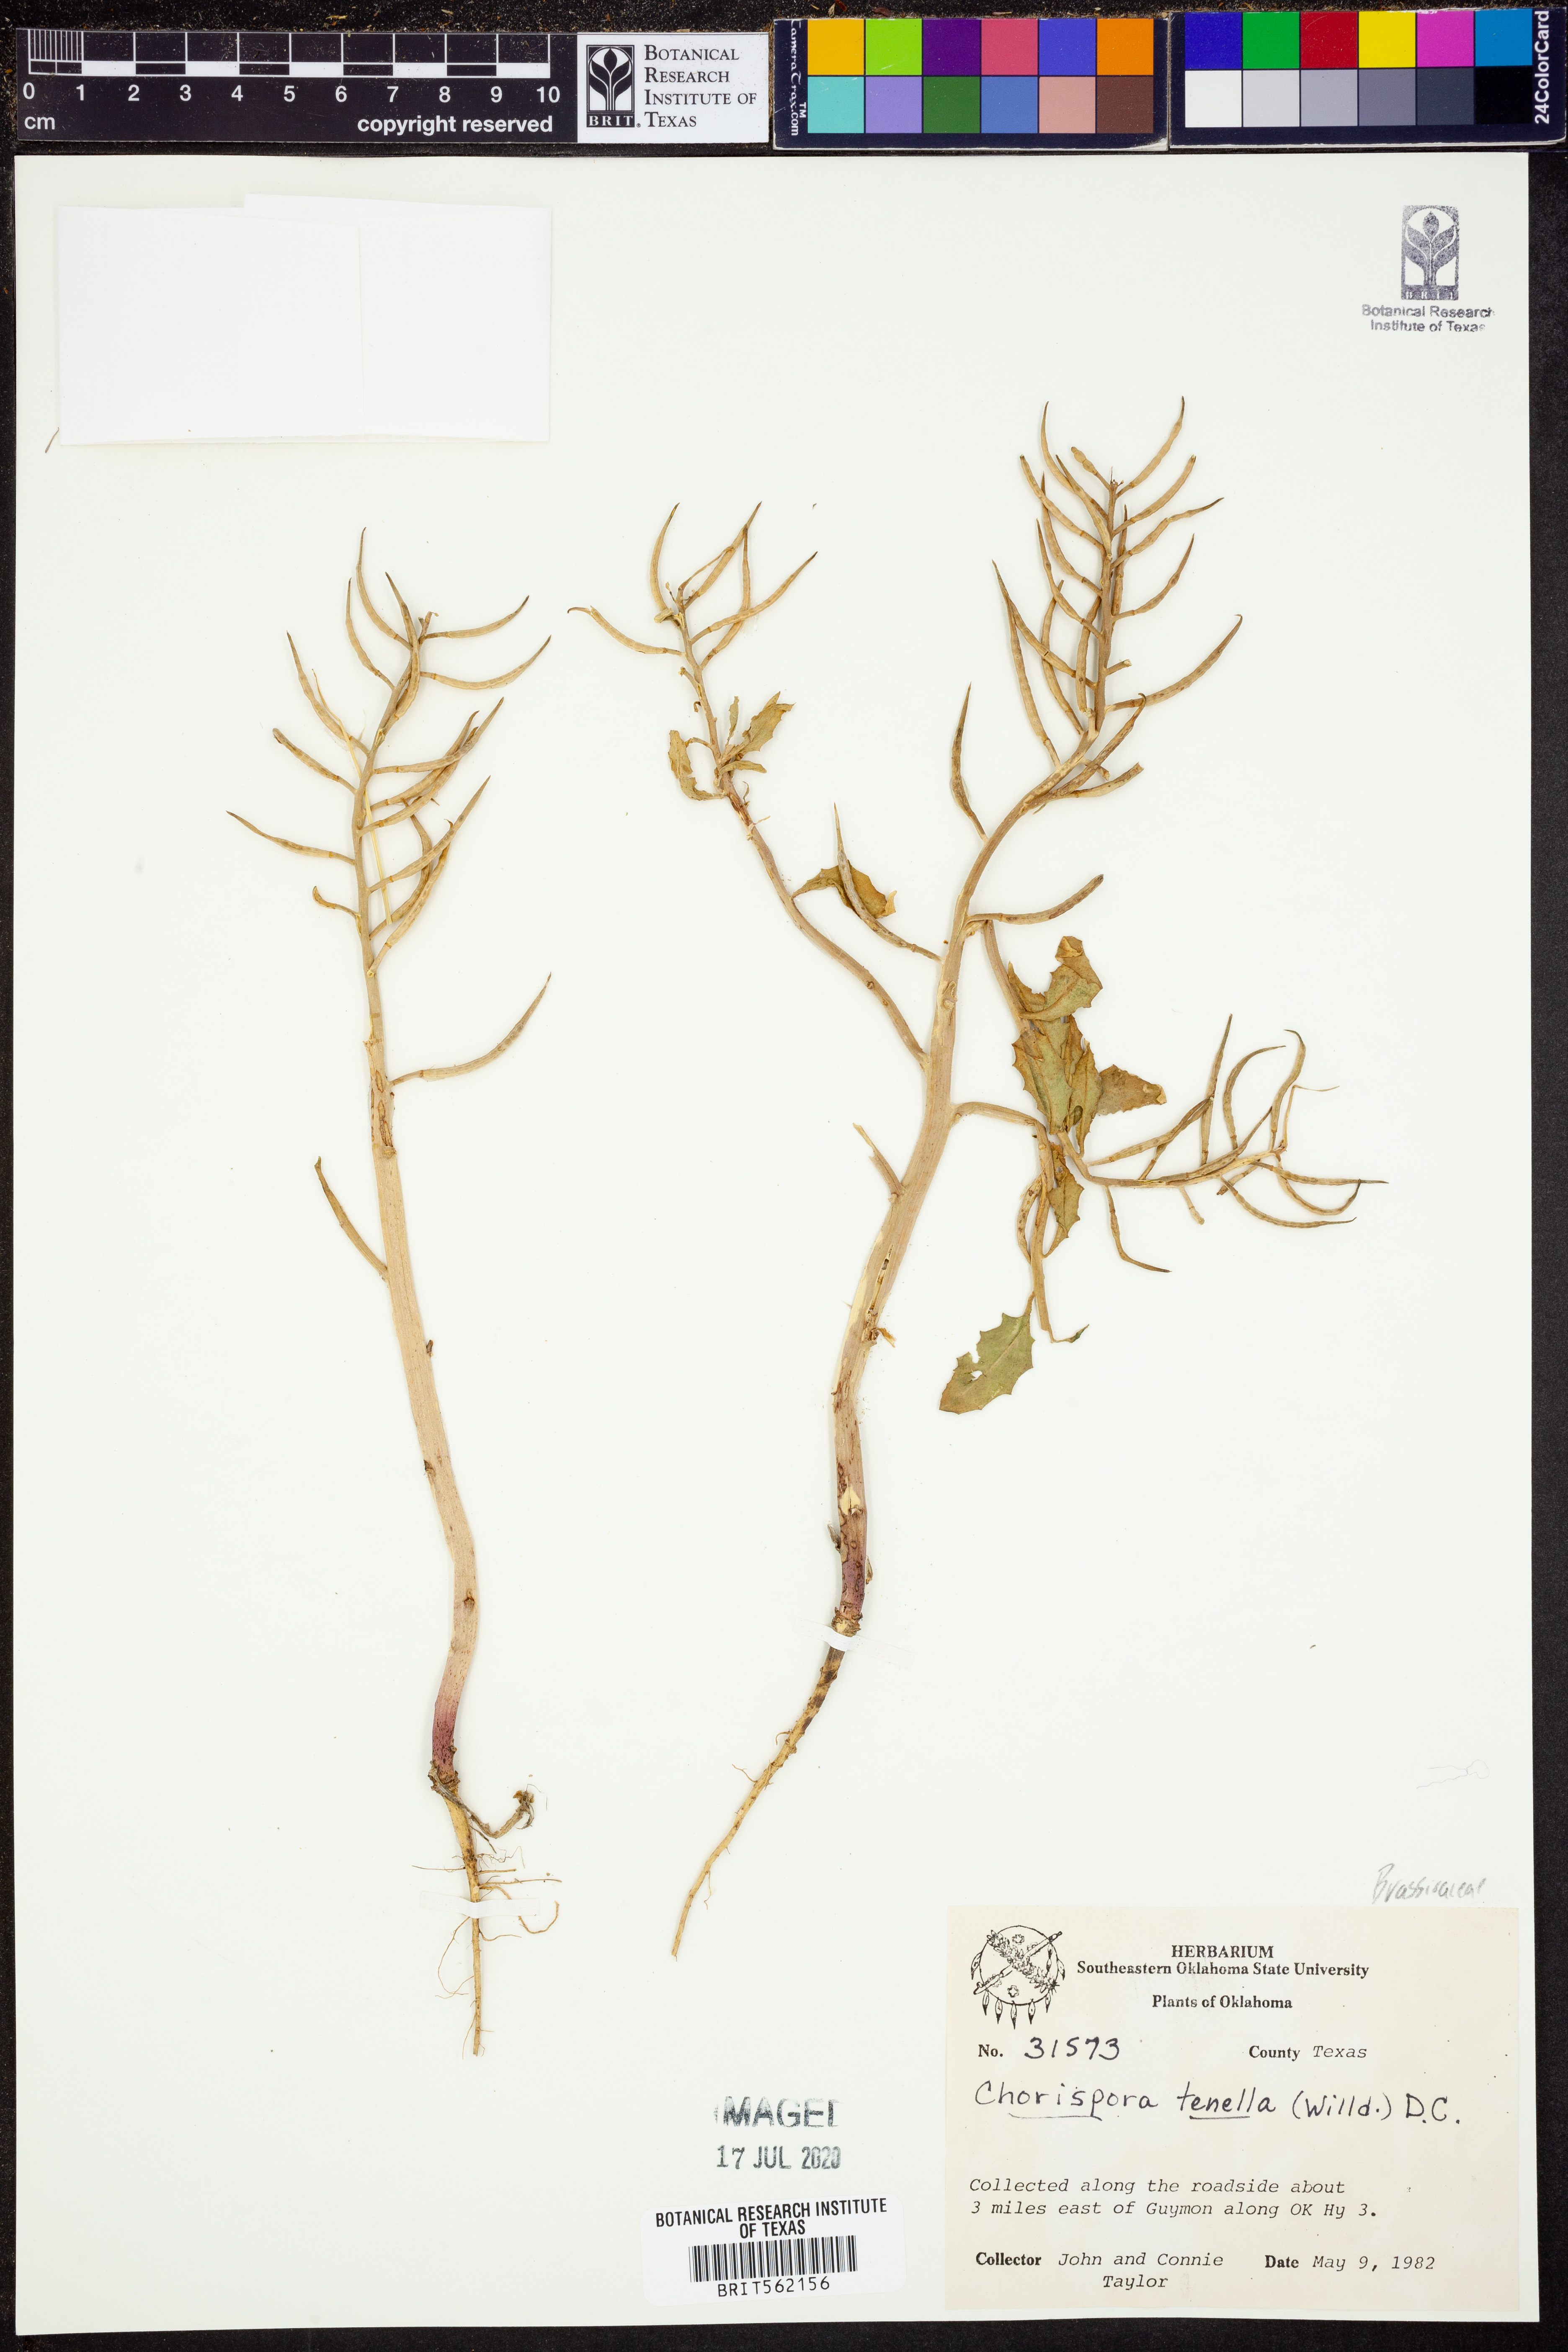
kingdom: Plantae
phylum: Tracheophyta
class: Magnoliopsida
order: Brassicales
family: Brassicaceae
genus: Chorispora
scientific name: Chorispora tenella
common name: Crossflower
